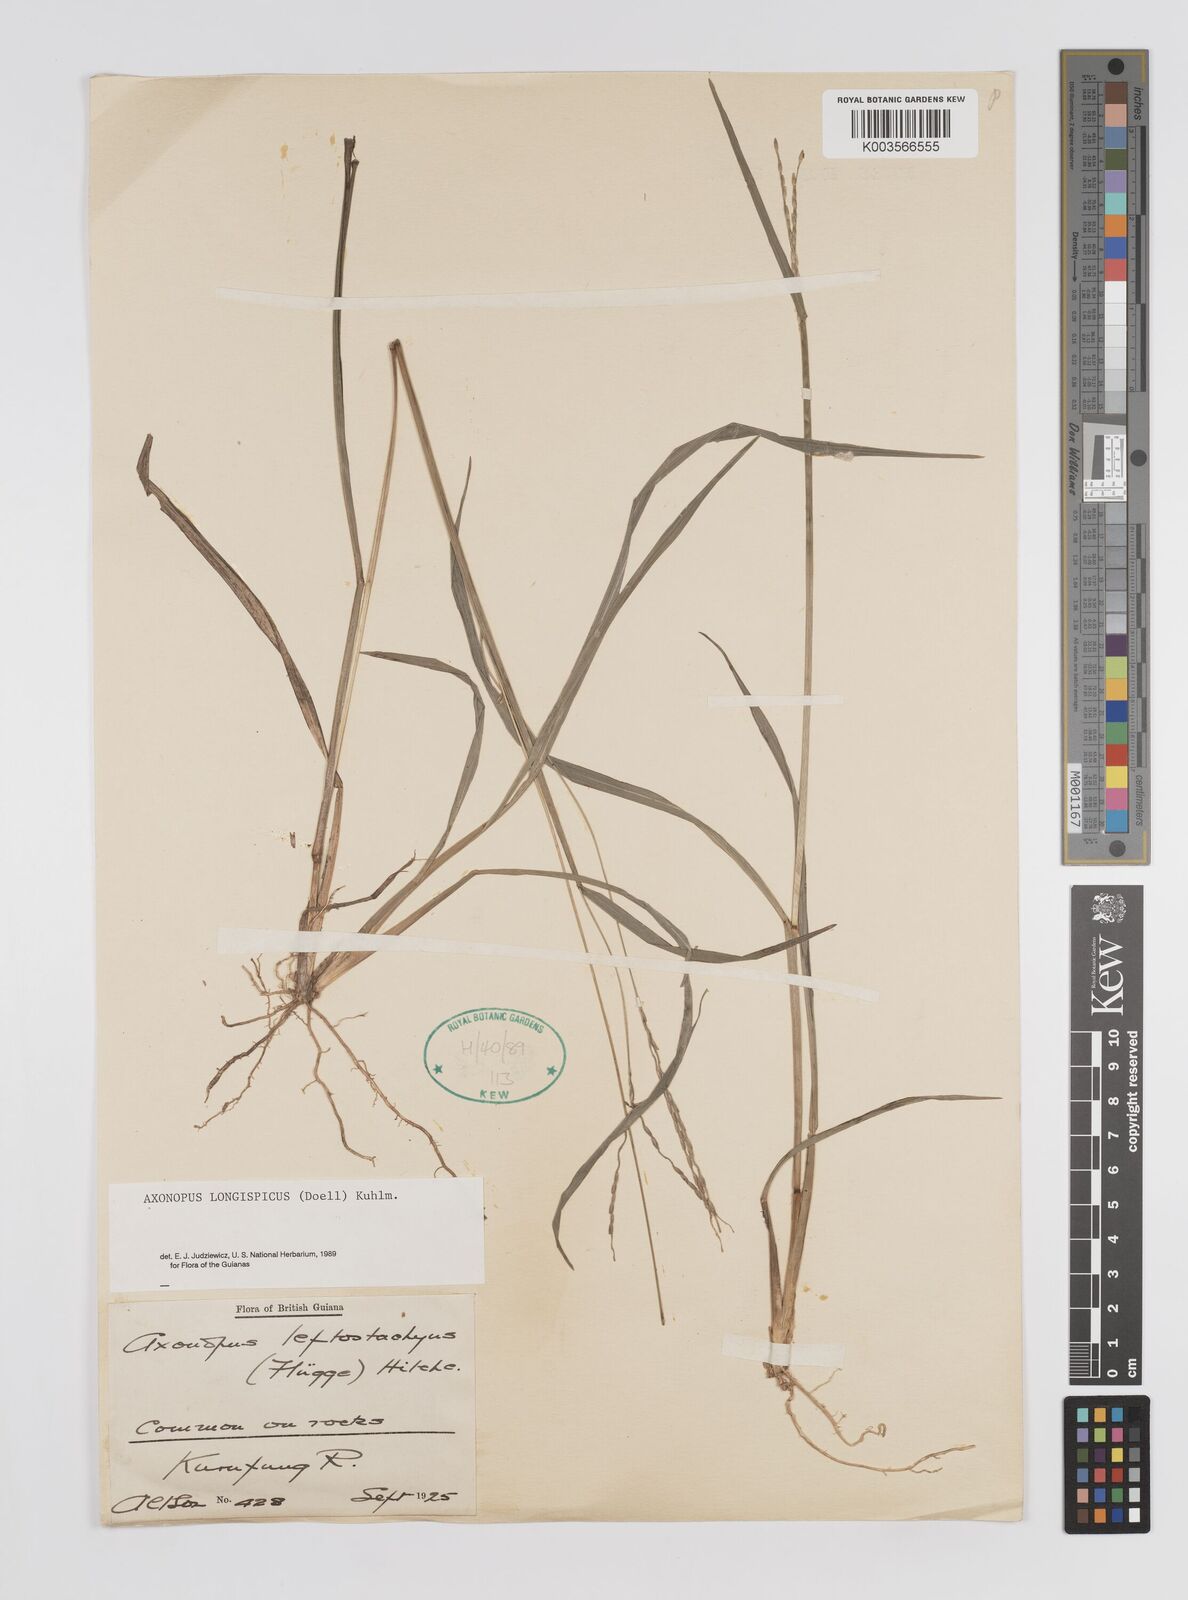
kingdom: Plantae
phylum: Tracheophyta
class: Liliopsida
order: Poales
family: Poaceae
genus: Axonopus
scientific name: Axonopus longispicus
